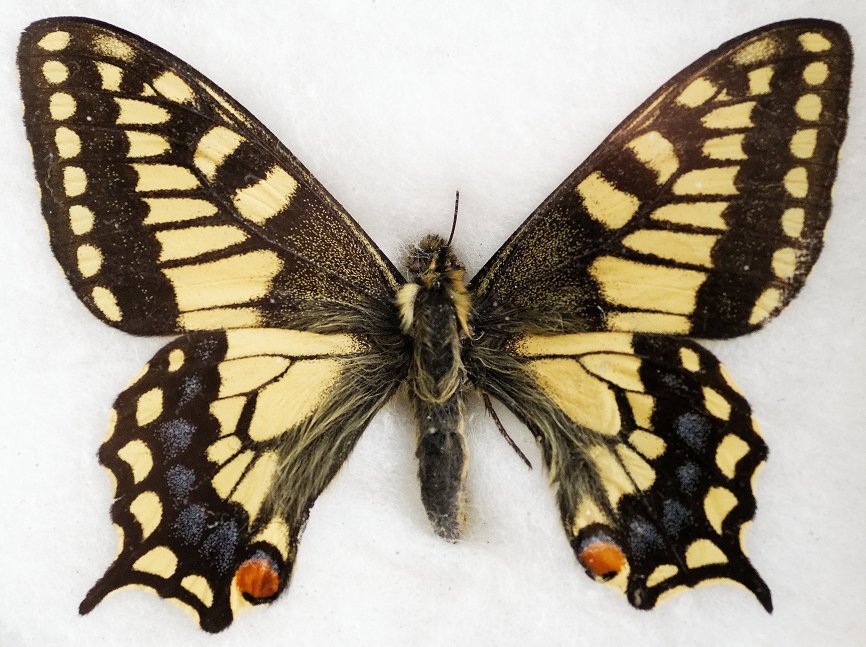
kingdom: Animalia
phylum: Arthropoda
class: Insecta
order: Lepidoptera
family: Papilionidae
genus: Papilio
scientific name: Papilio machaon
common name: Old World Swallowtail
